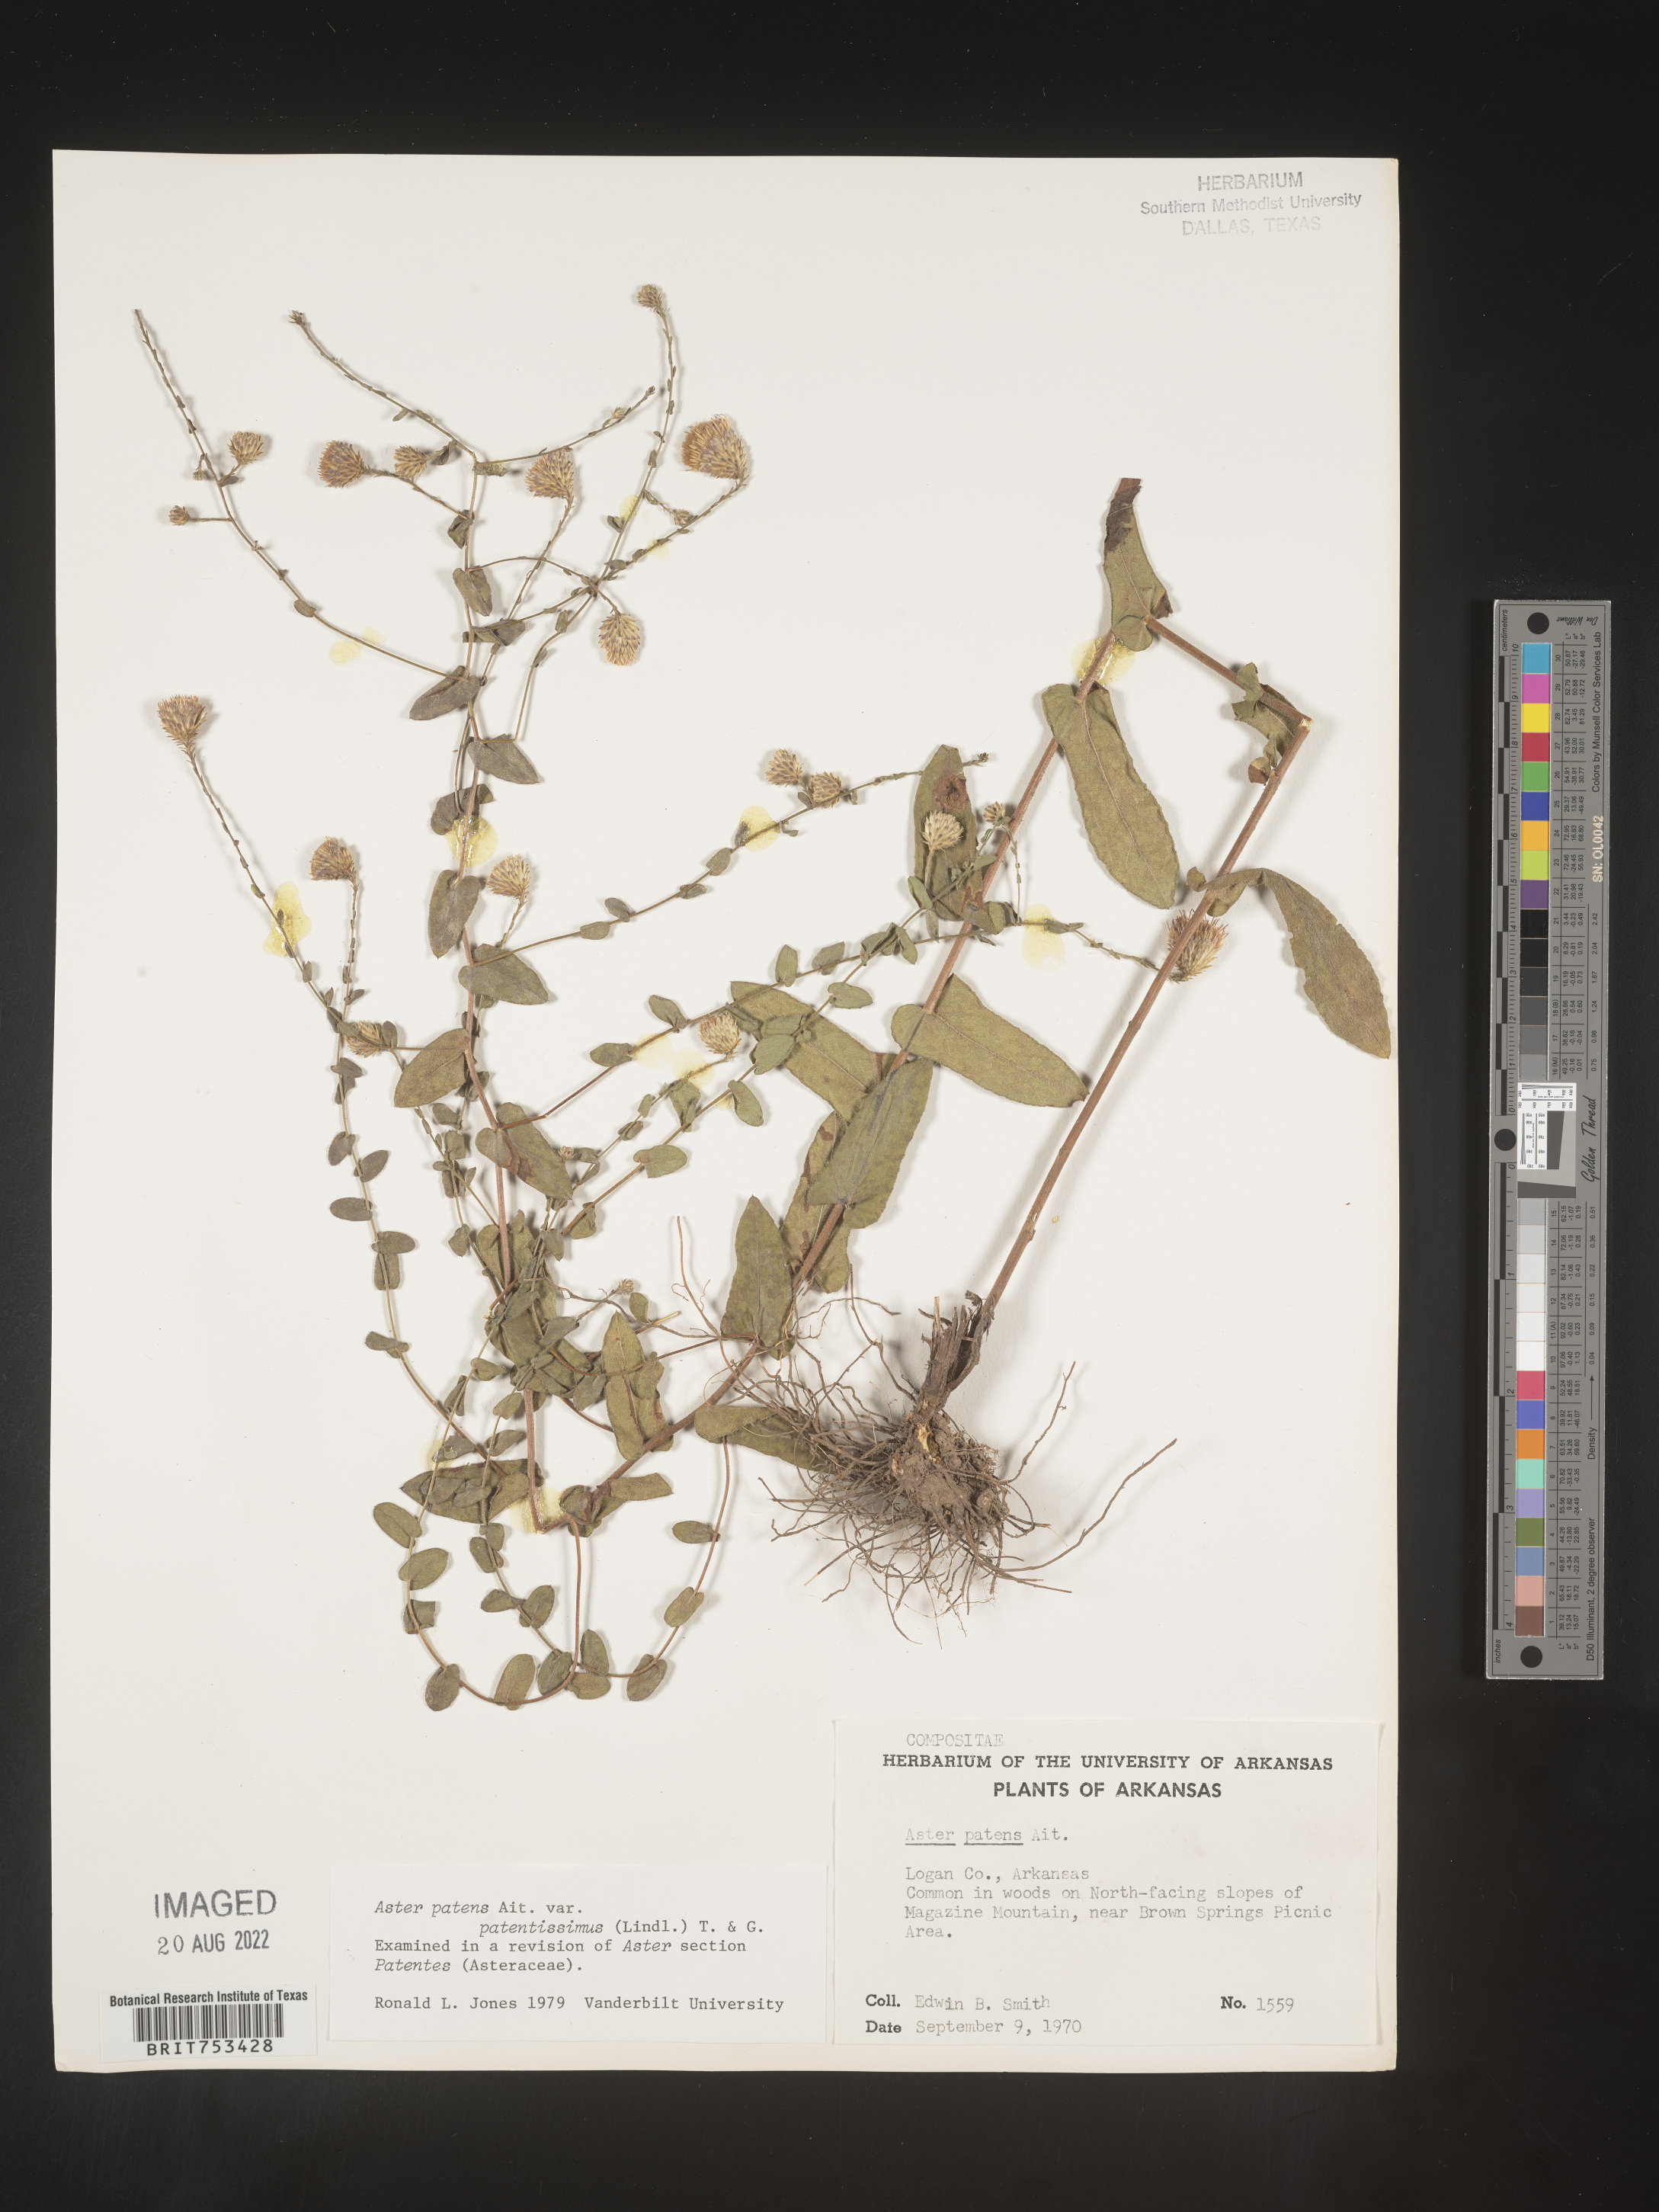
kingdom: Plantae
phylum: Tracheophyta
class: Magnoliopsida
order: Asterales
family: Asteraceae
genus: Symphyotrichum
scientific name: Symphyotrichum patens
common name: Late purple aster
